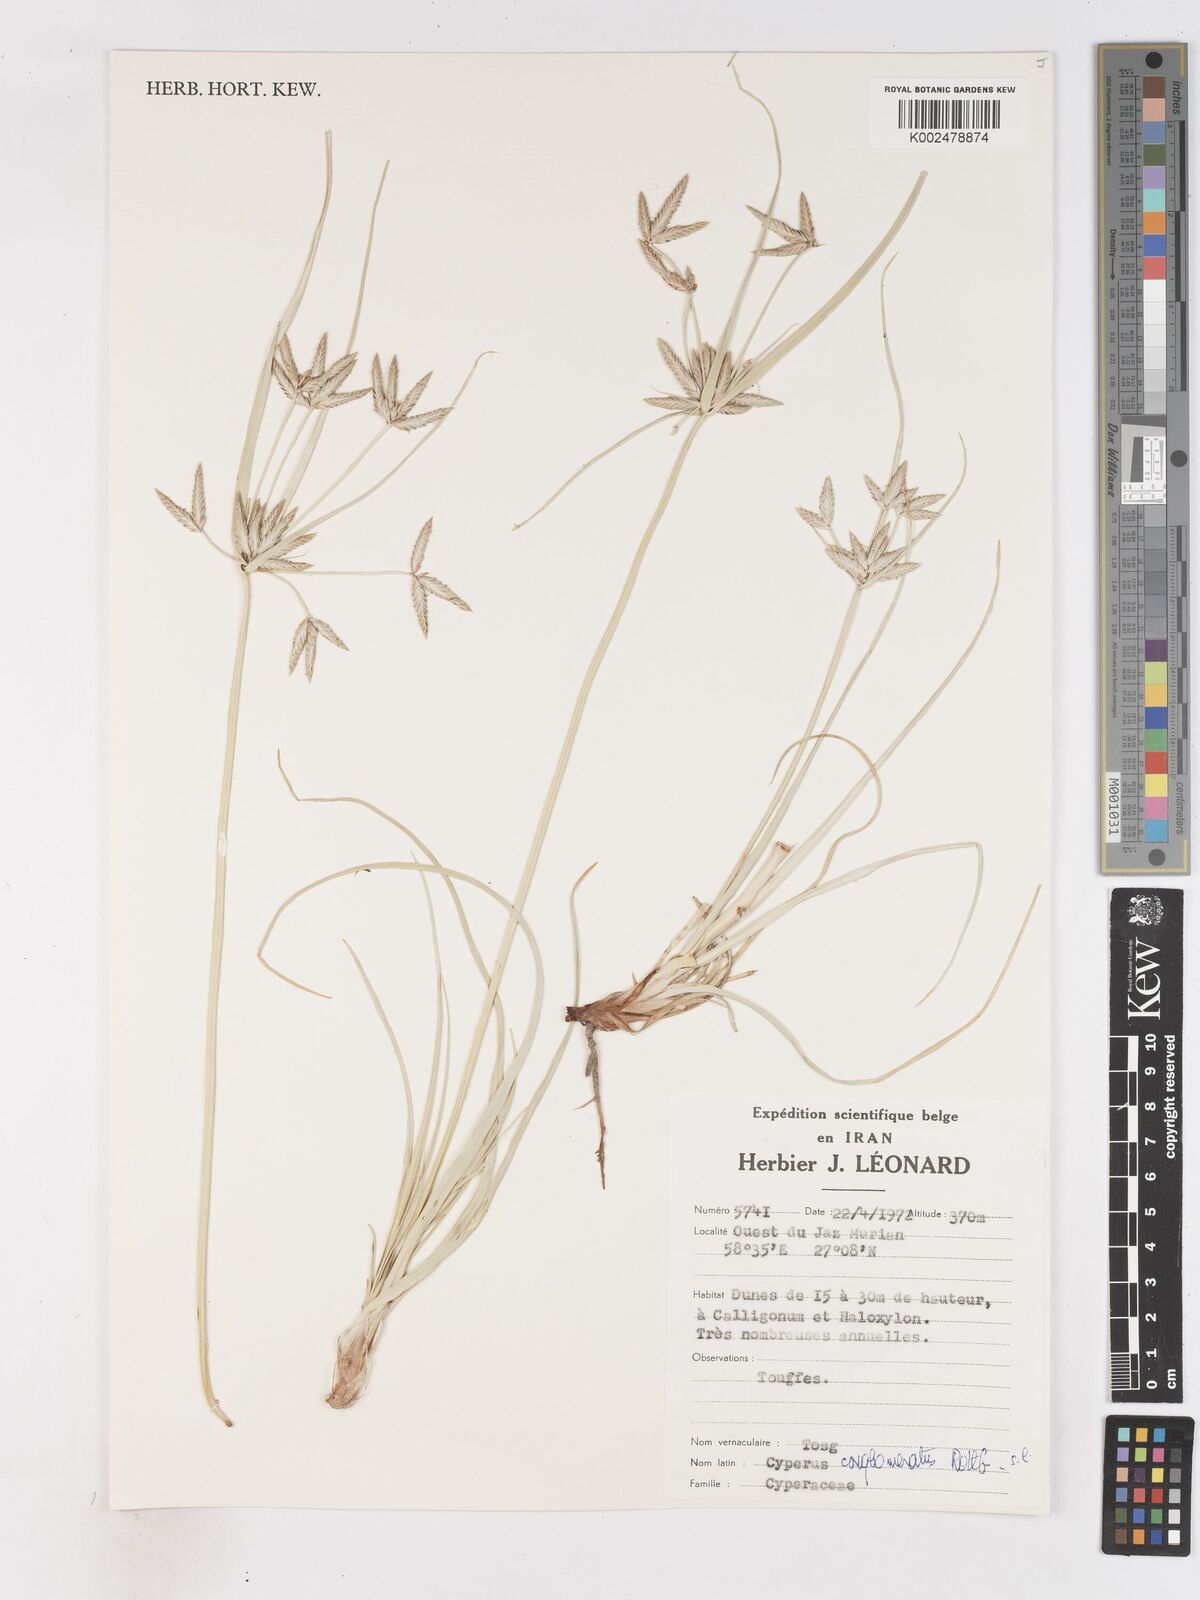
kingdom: Plantae
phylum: Tracheophyta
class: Liliopsida
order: Poales
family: Cyperaceae
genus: Cyperus
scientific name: Cyperus aucheri
